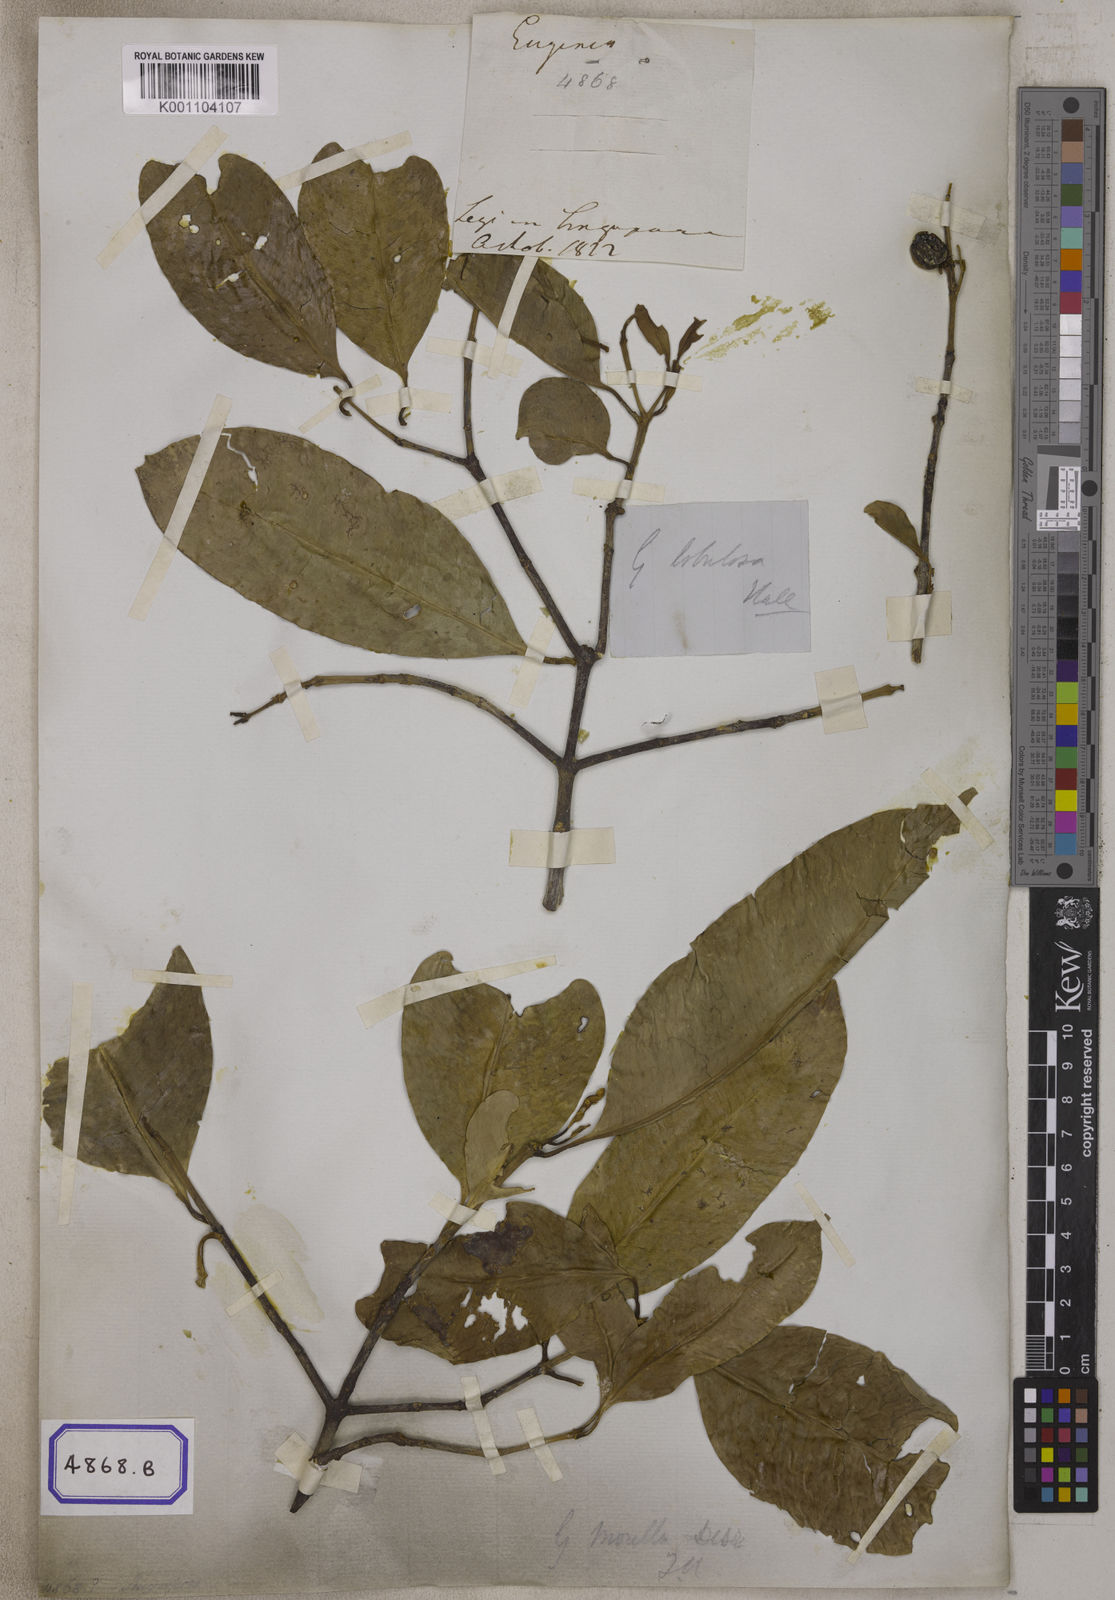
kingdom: Plantae
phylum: Tracheophyta
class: Magnoliopsida
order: Malpighiales
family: Clusiaceae
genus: Garcinia
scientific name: Garcinia
